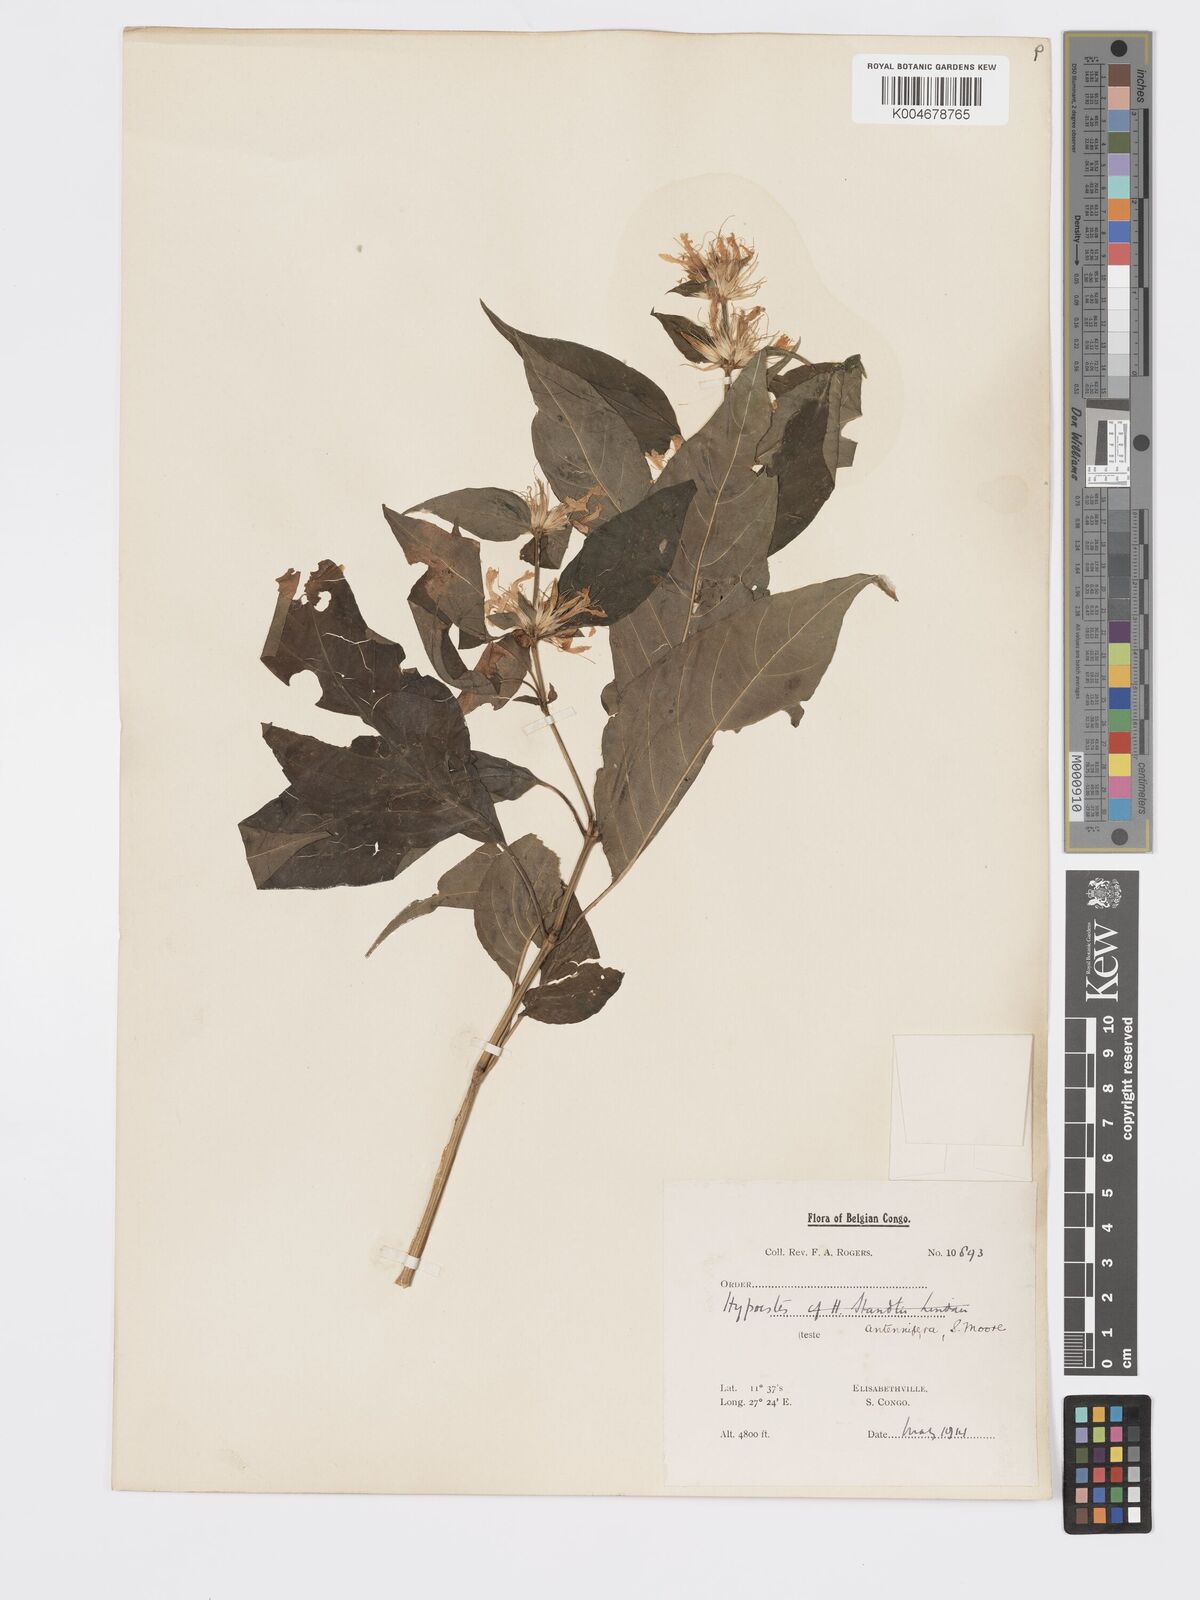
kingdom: Plantae
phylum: Tracheophyta
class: Magnoliopsida
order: Lamiales
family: Acanthaceae
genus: Hypoestes
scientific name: Hypoestes aristata
